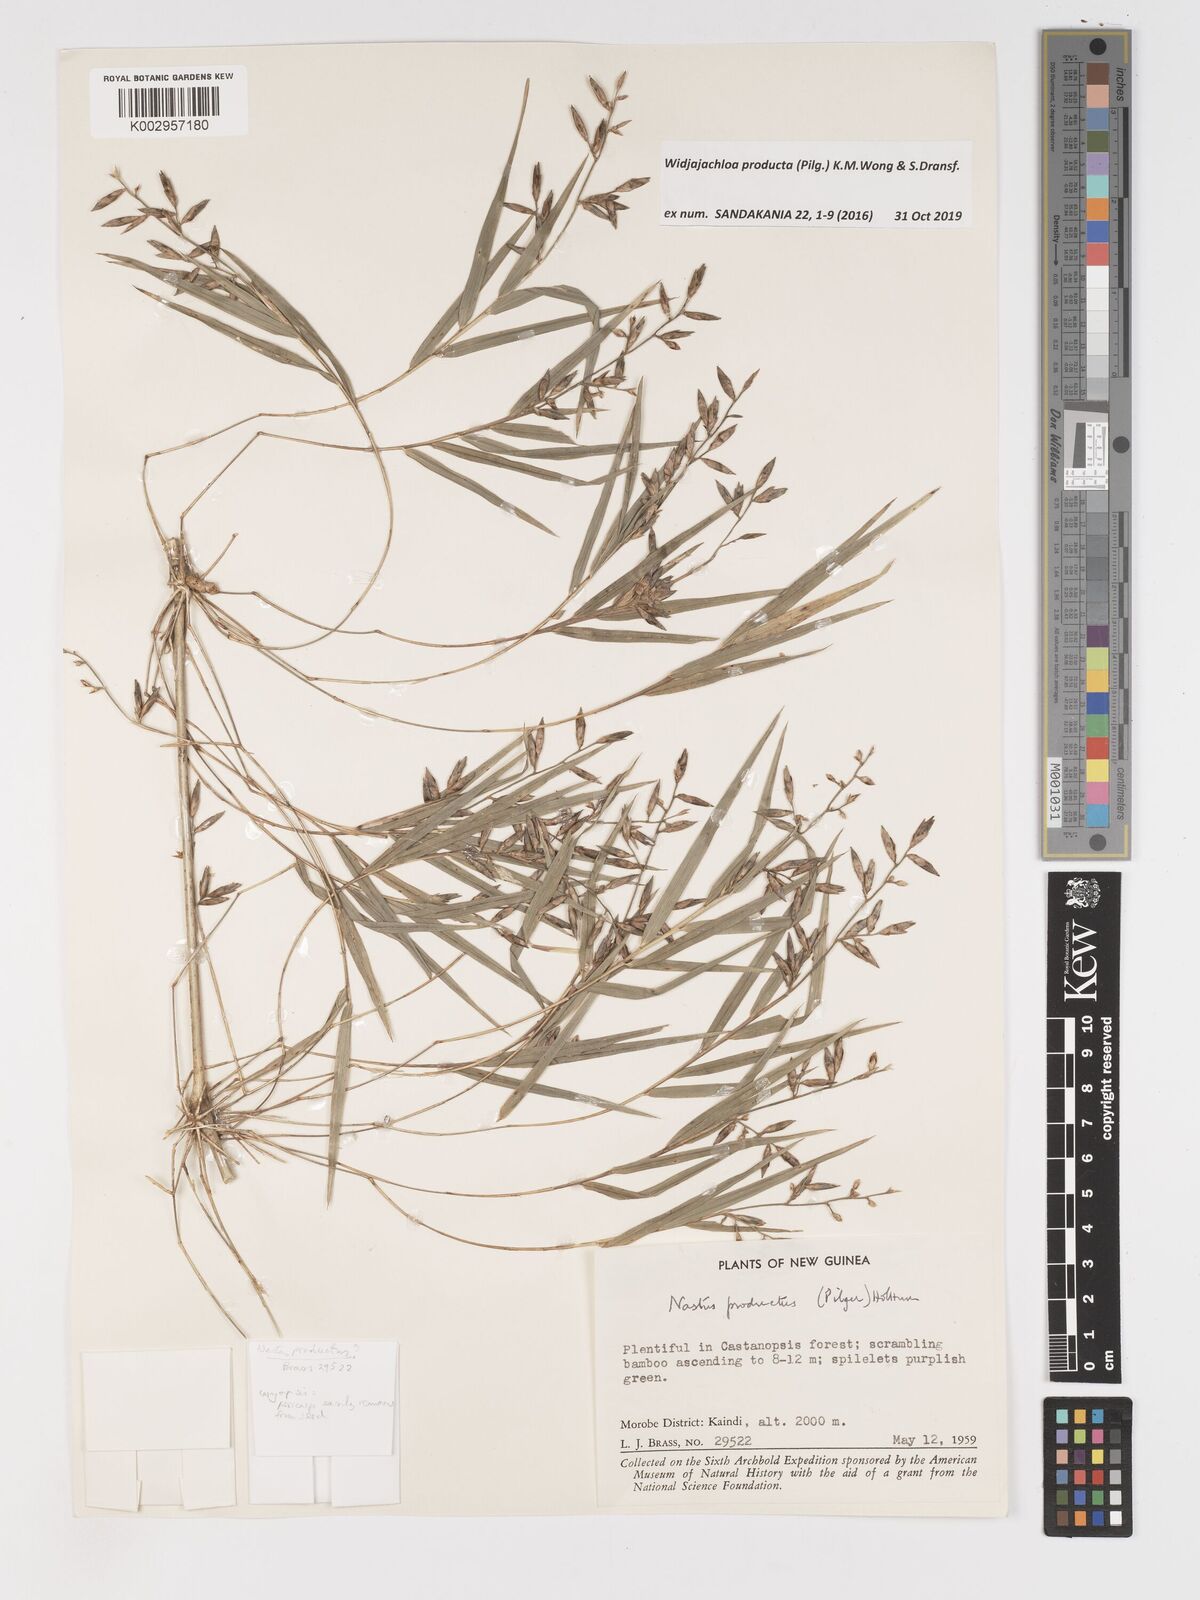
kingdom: Plantae
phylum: Tracheophyta
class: Liliopsida
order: Poales
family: Poaceae
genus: Widjajachloa
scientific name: Widjajachloa producta
